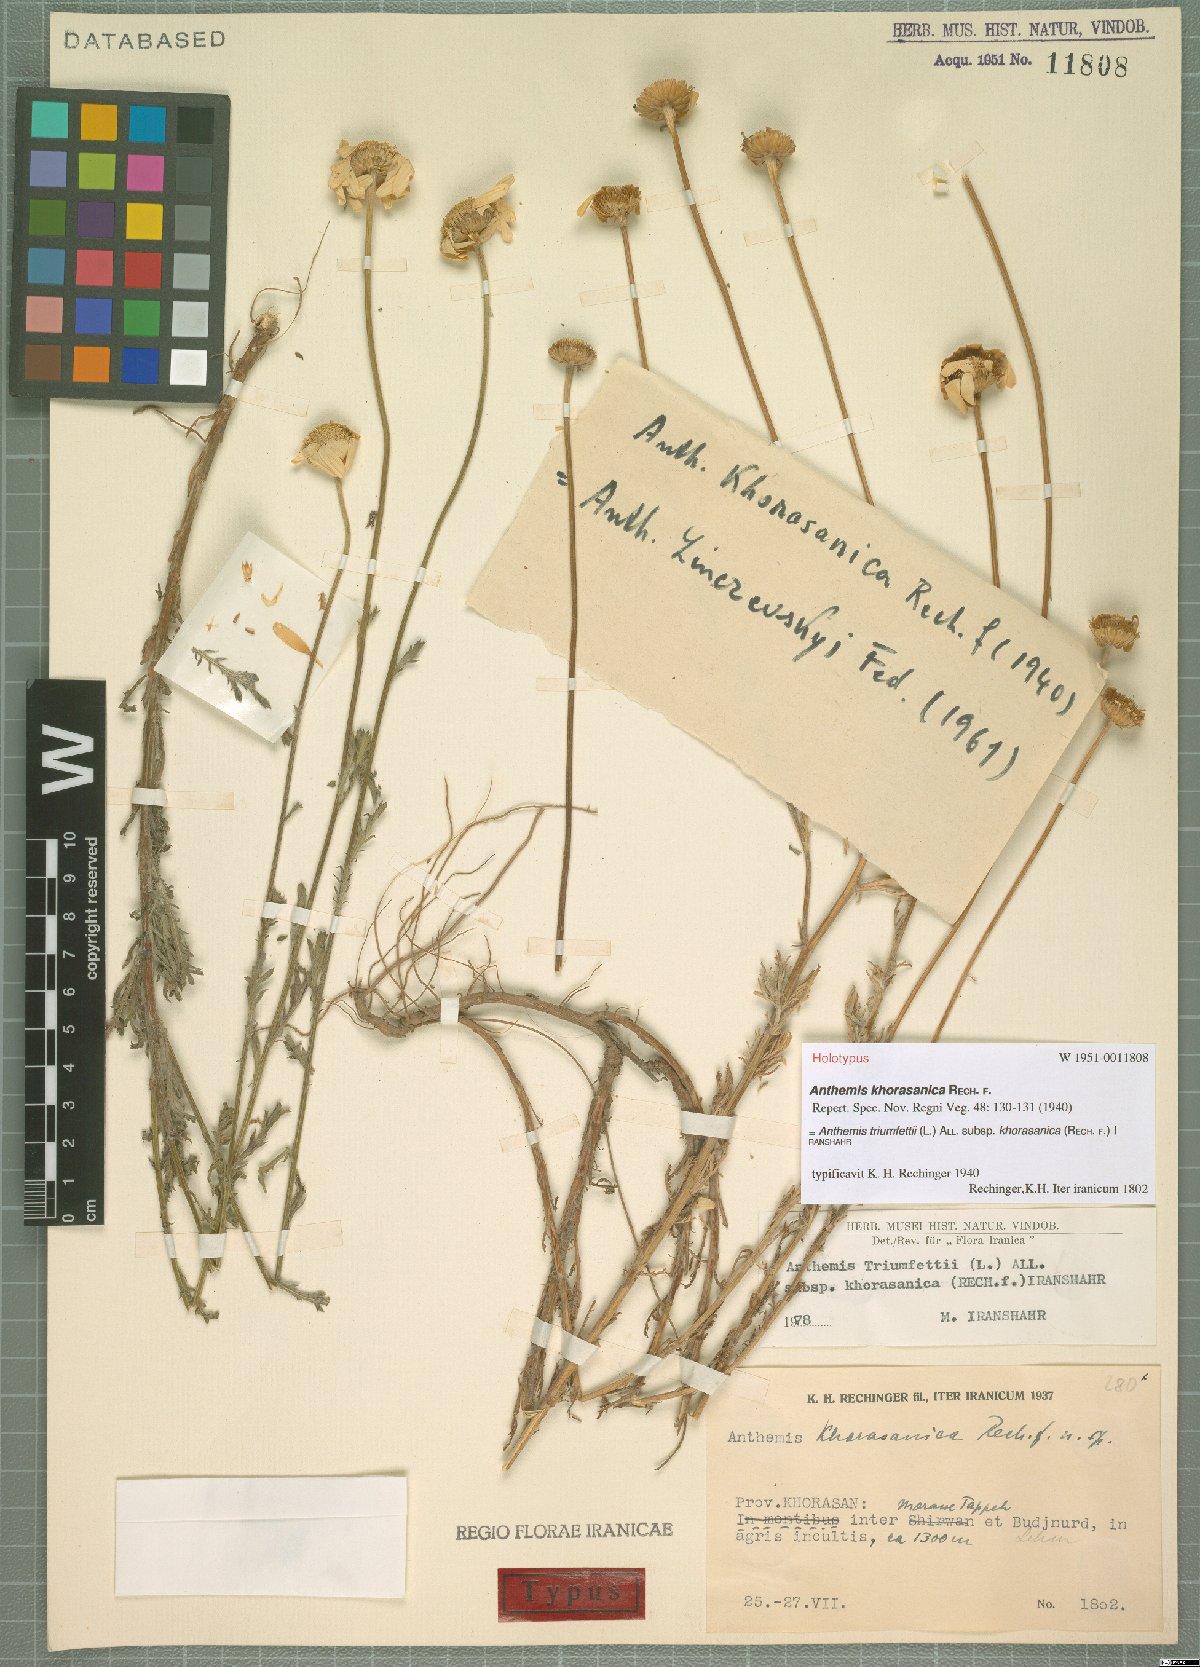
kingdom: Plantae
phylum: Tracheophyta
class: Magnoliopsida
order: Asterales
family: Asteraceae
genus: Cota
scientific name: Cota austriaca
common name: Austrian chamomile
